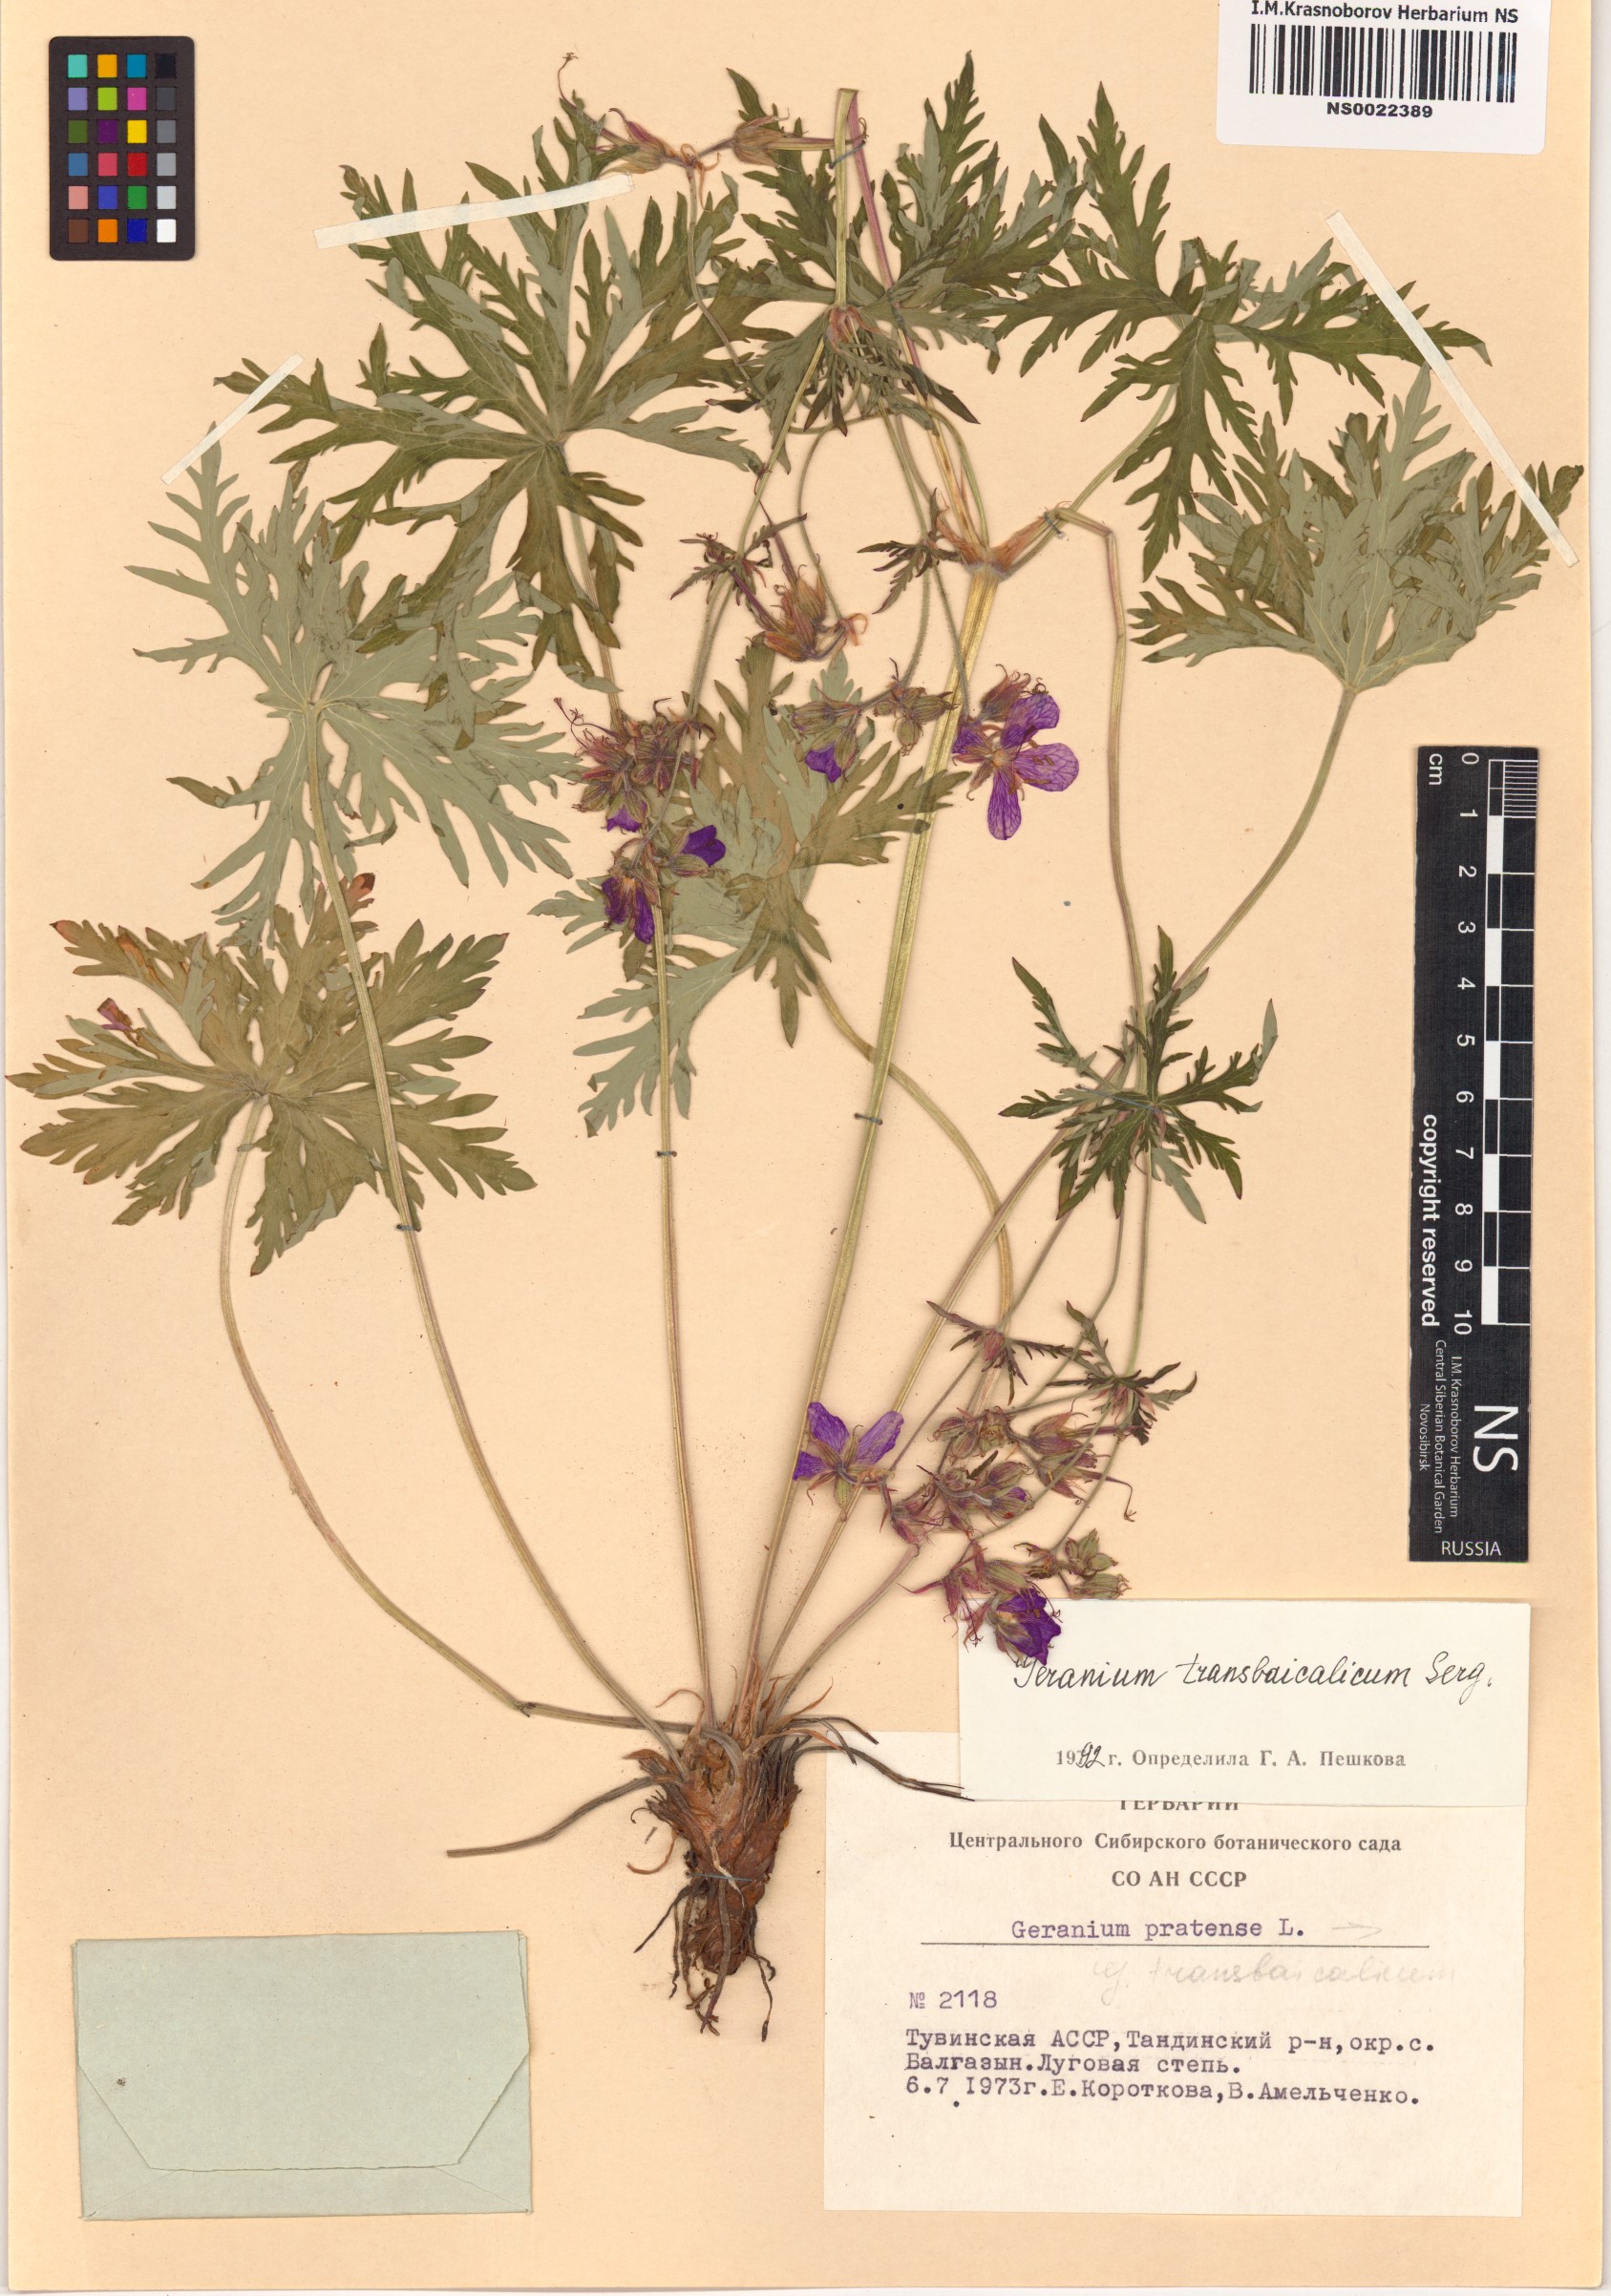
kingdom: Plantae
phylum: Tracheophyta
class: Magnoliopsida
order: Geraniales
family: Geraniaceae
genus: Geranium
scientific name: Geranium pratense
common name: Meadow crane's-bill
